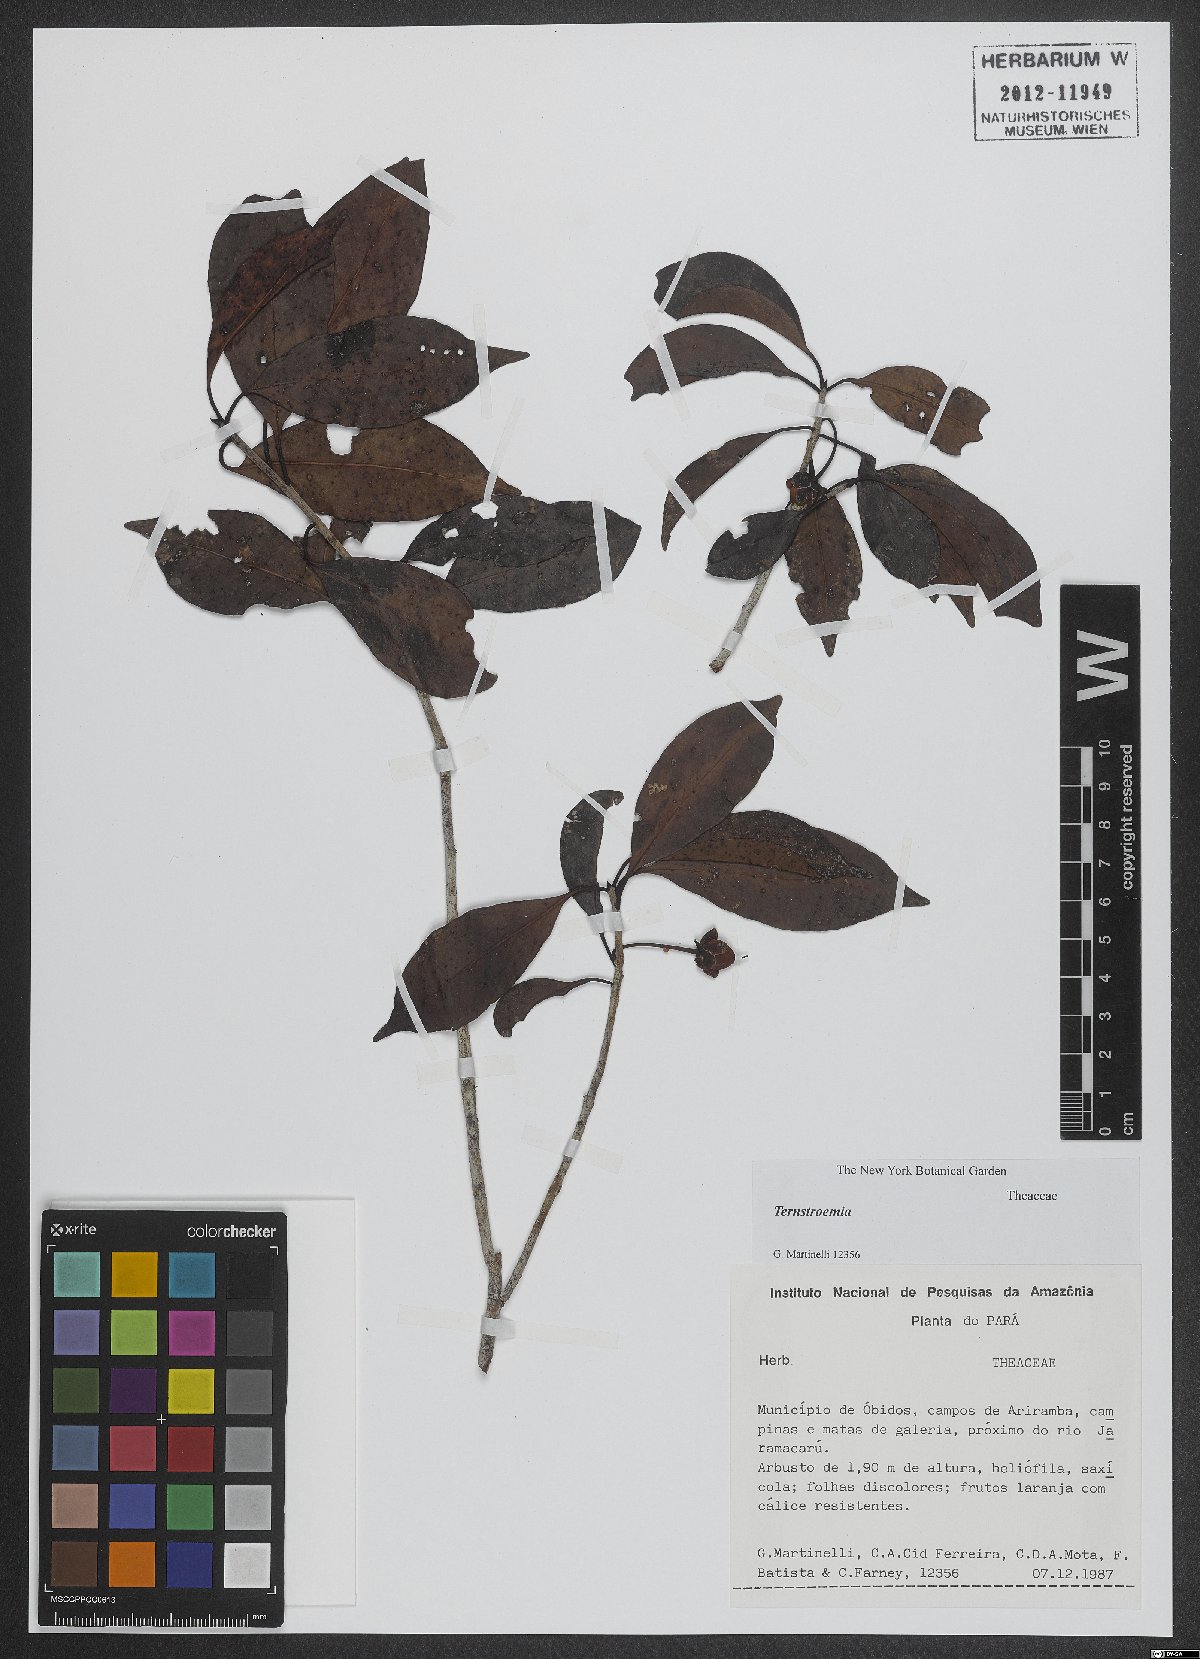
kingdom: Plantae
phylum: Tracheophyta
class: Magnoliopsida
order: Ericales
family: Pentaphylacaceae
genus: Ternstroemia
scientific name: Ternstroemia
